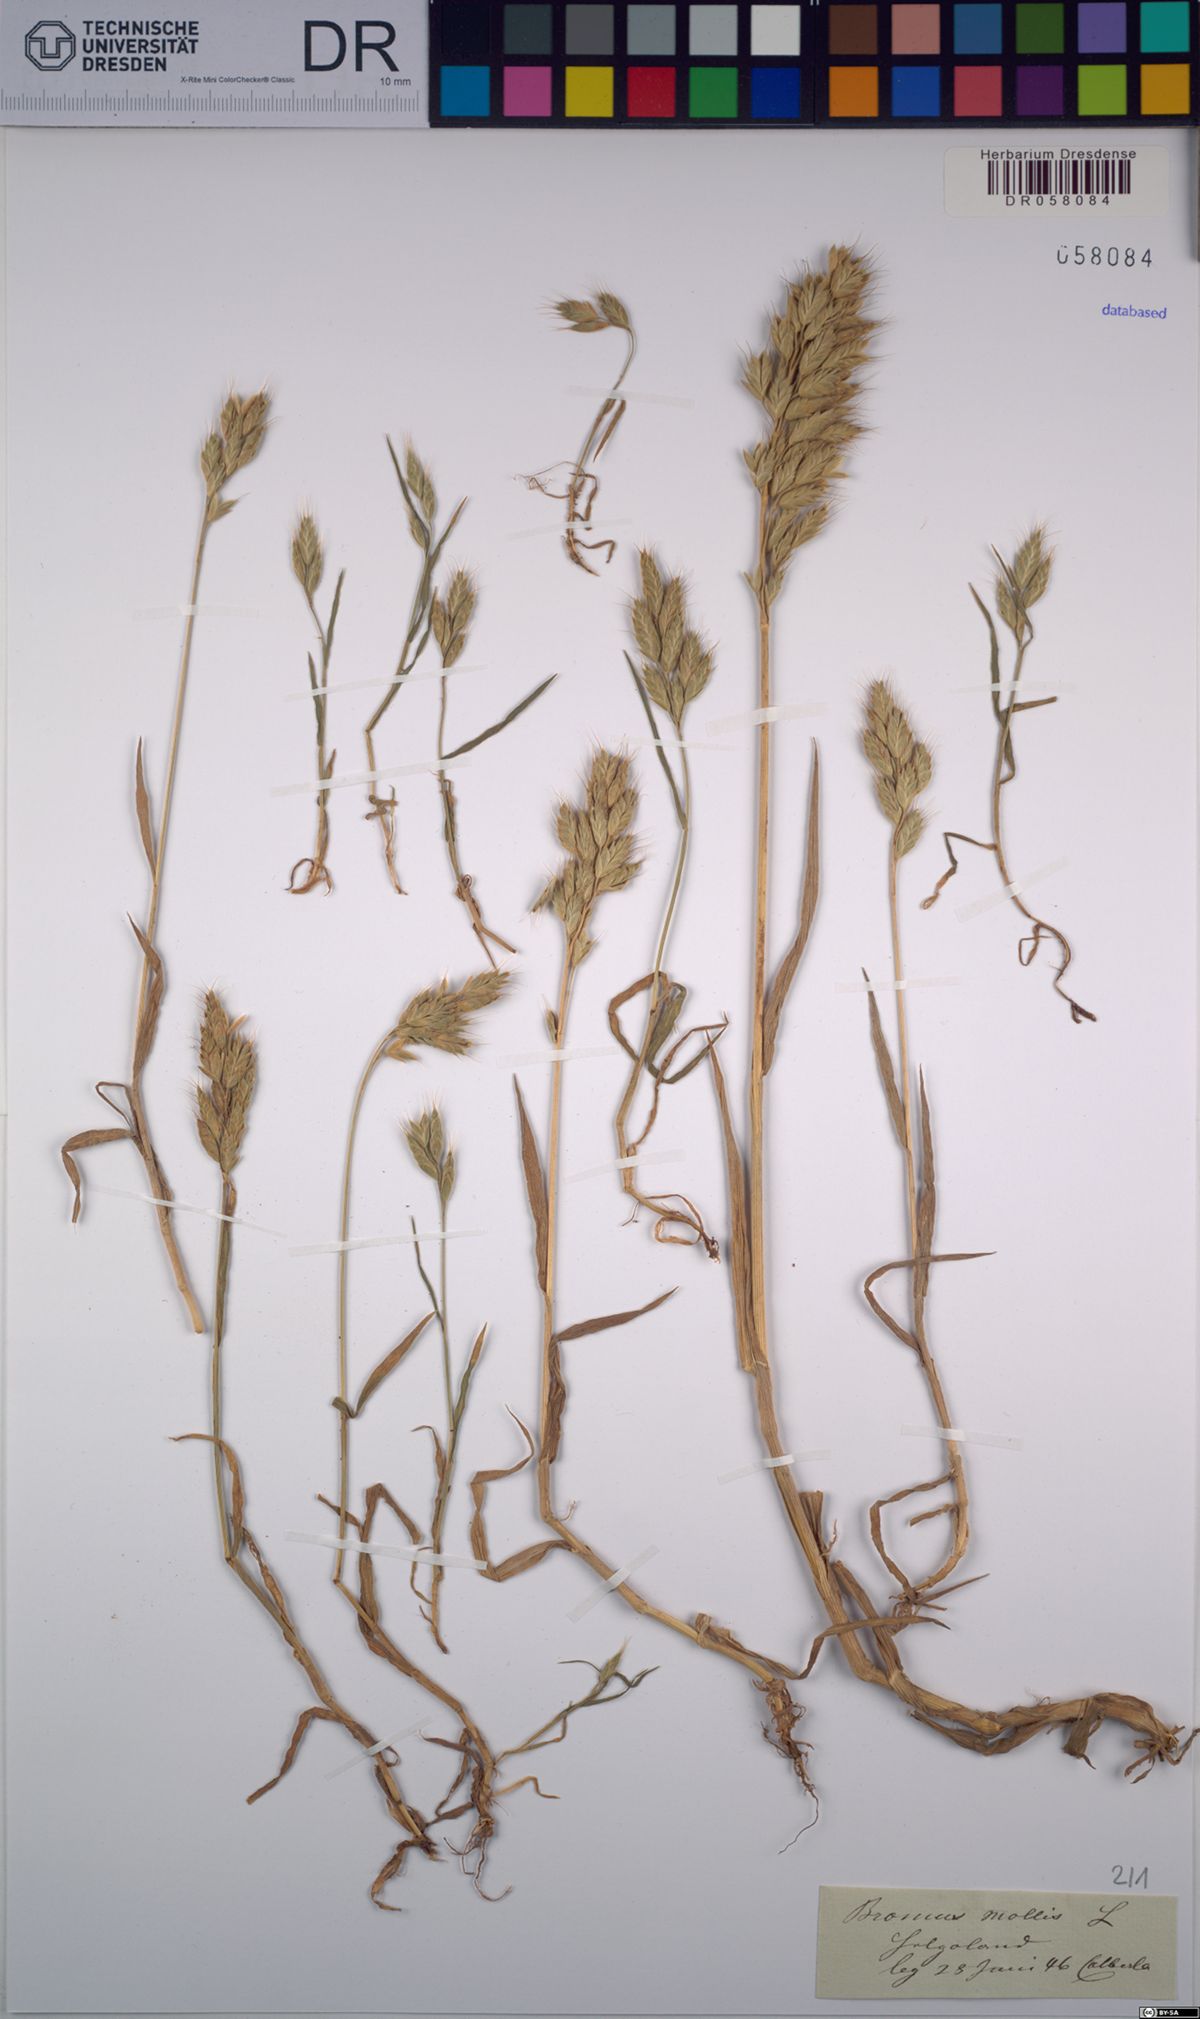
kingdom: Plantae
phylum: Tracheophyta
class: Liliopsida
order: Poales
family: Poaceae
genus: Bromus
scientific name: Bromus hordeaceus
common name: Soft brome
